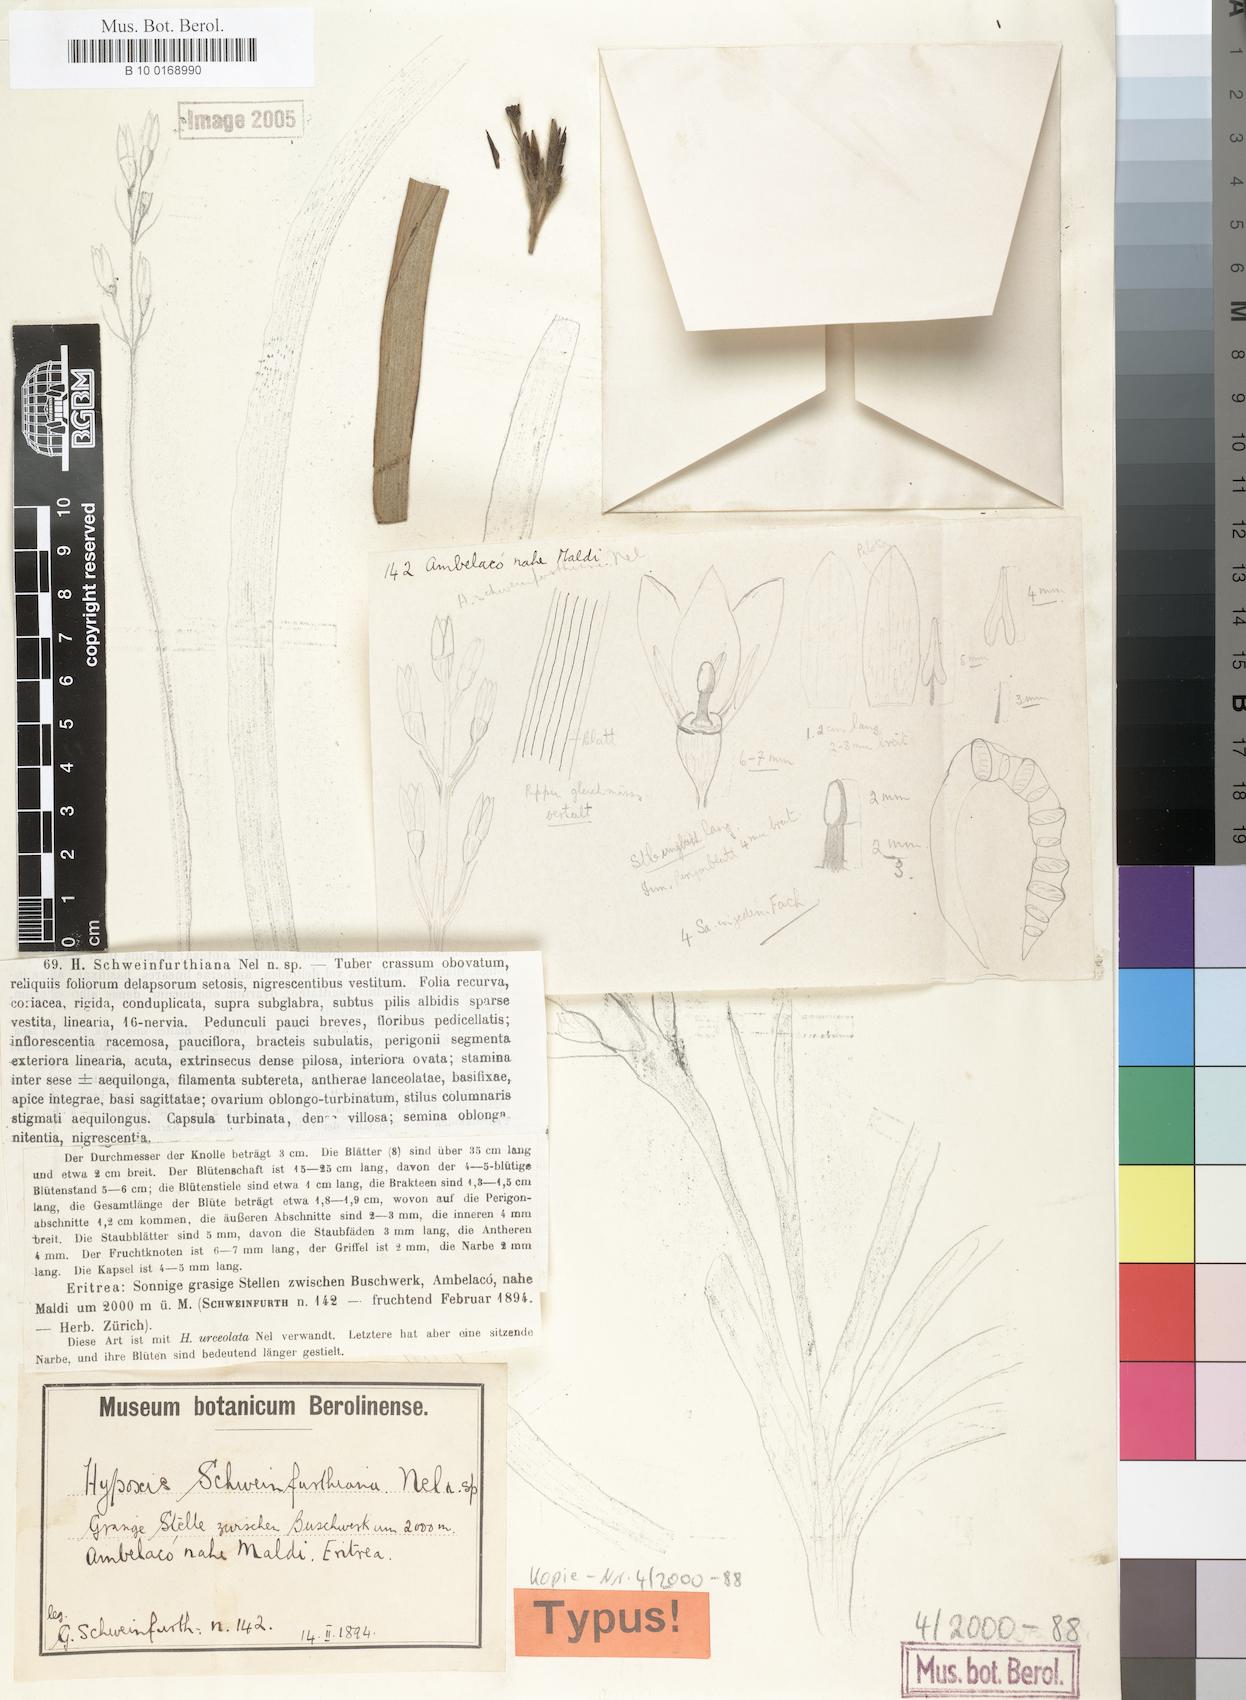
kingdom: Plantae
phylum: Tracheophyta
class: Liliopsida
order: Asparagales
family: Hypoxidaceae
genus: Hypoxis
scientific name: Hypoxis abyssinica
